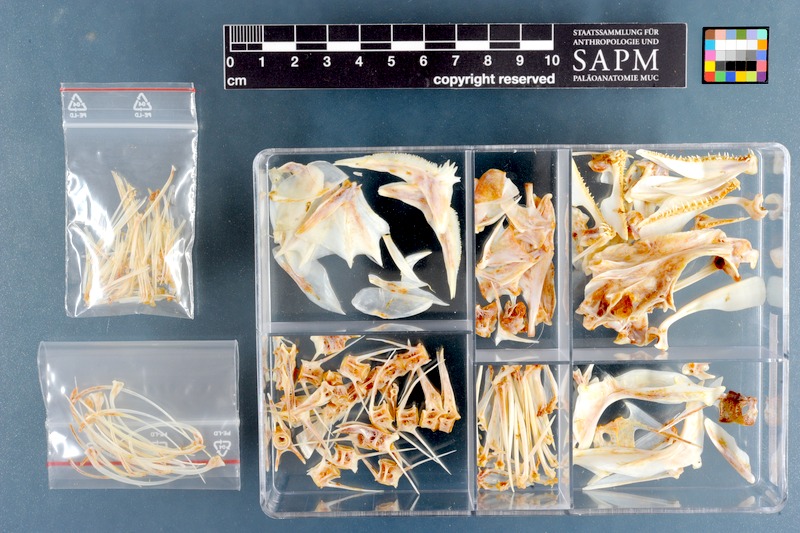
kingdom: Animalia
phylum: Chordata
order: Perciformes
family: Serranidae
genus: Epinephelus
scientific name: Epinephelus albomarginatus
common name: Captain fine
